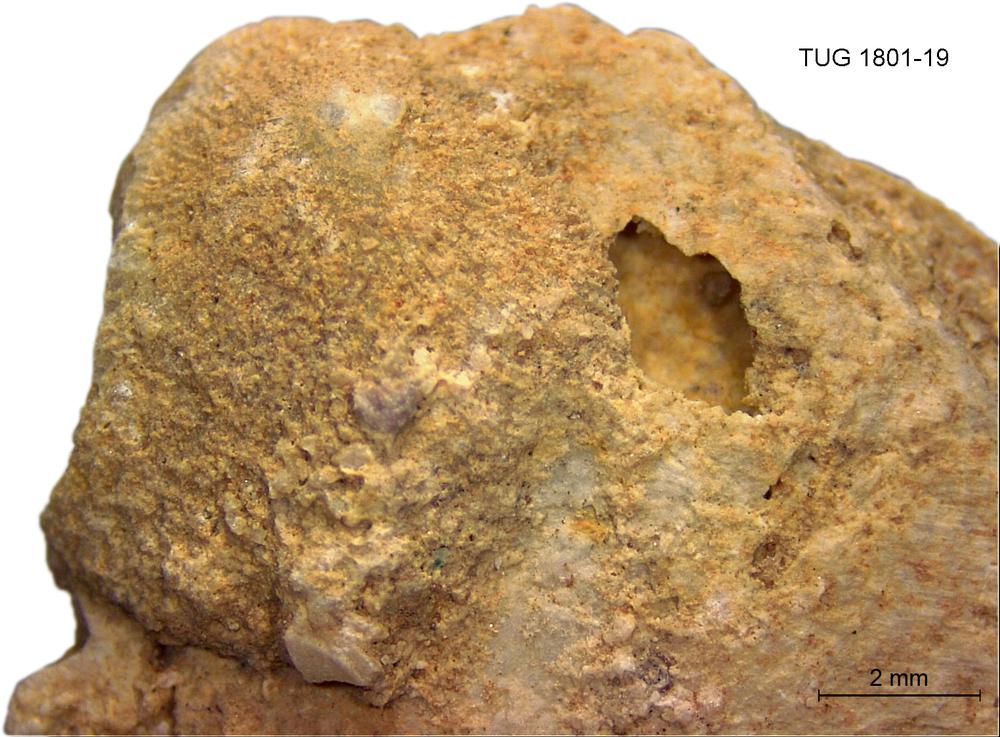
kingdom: Animalia
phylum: Brachiopoda
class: Craniata
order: Craniida
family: Craniidae
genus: Philhedra
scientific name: Philhedra
